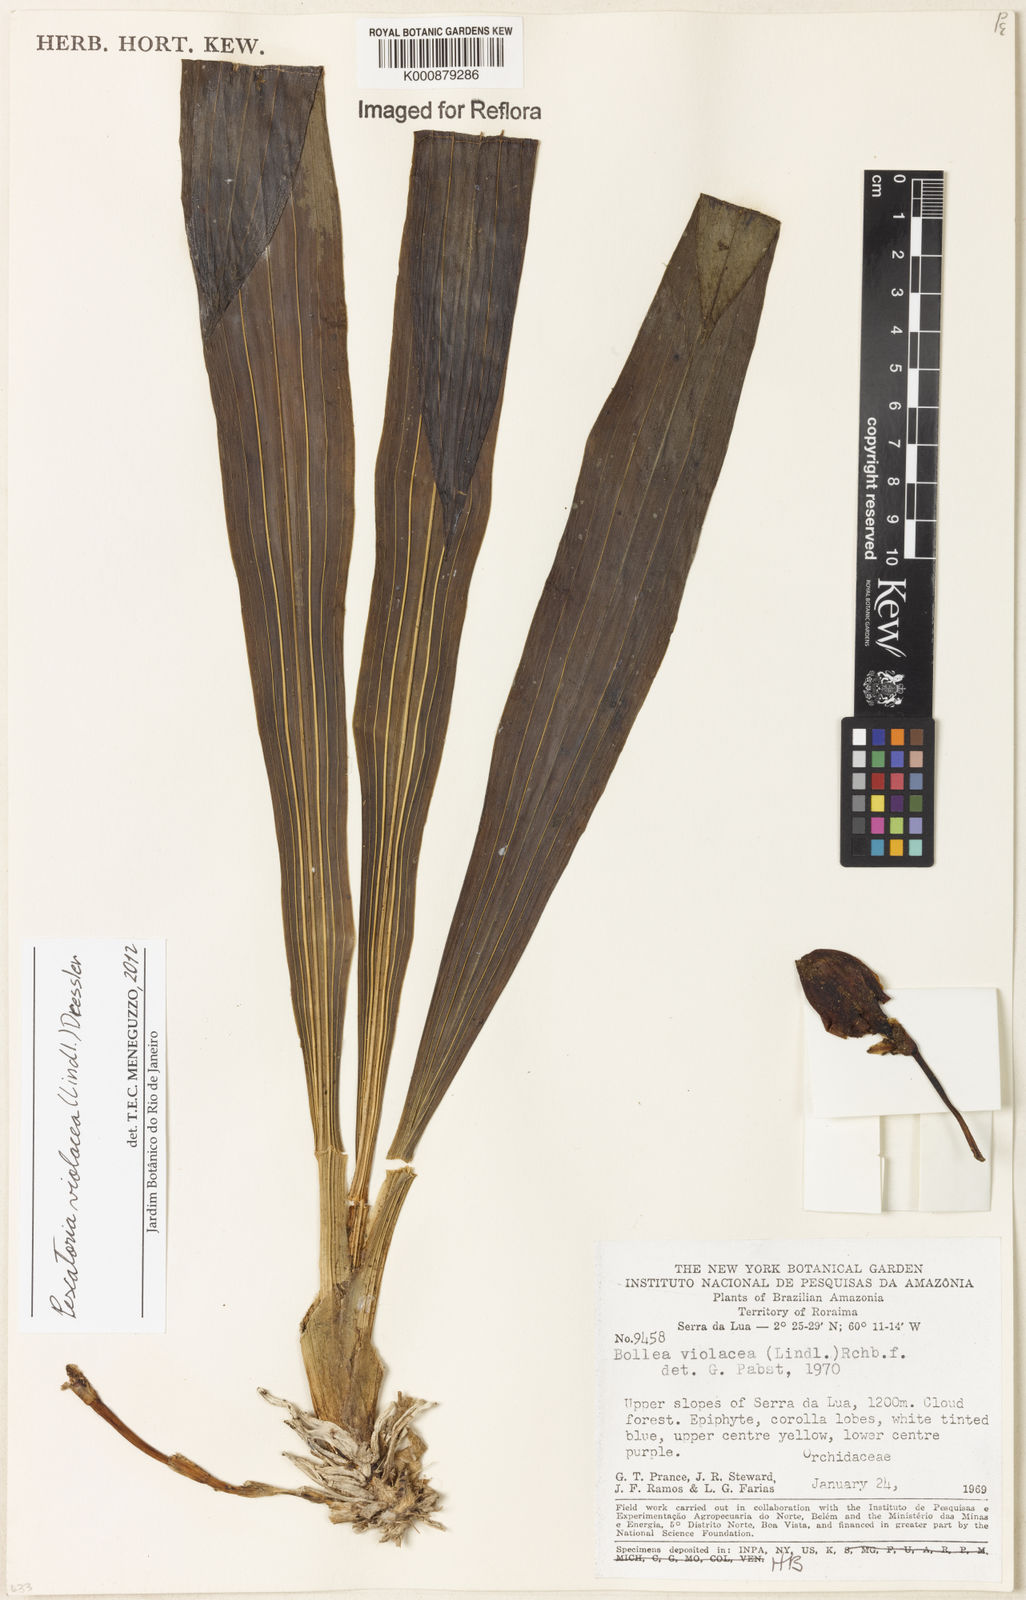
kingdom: Plantae
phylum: Tracheophyta
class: Liliopsida
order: Asparagales
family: Orchidaceae
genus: Pescatoria
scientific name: Pescatoria
